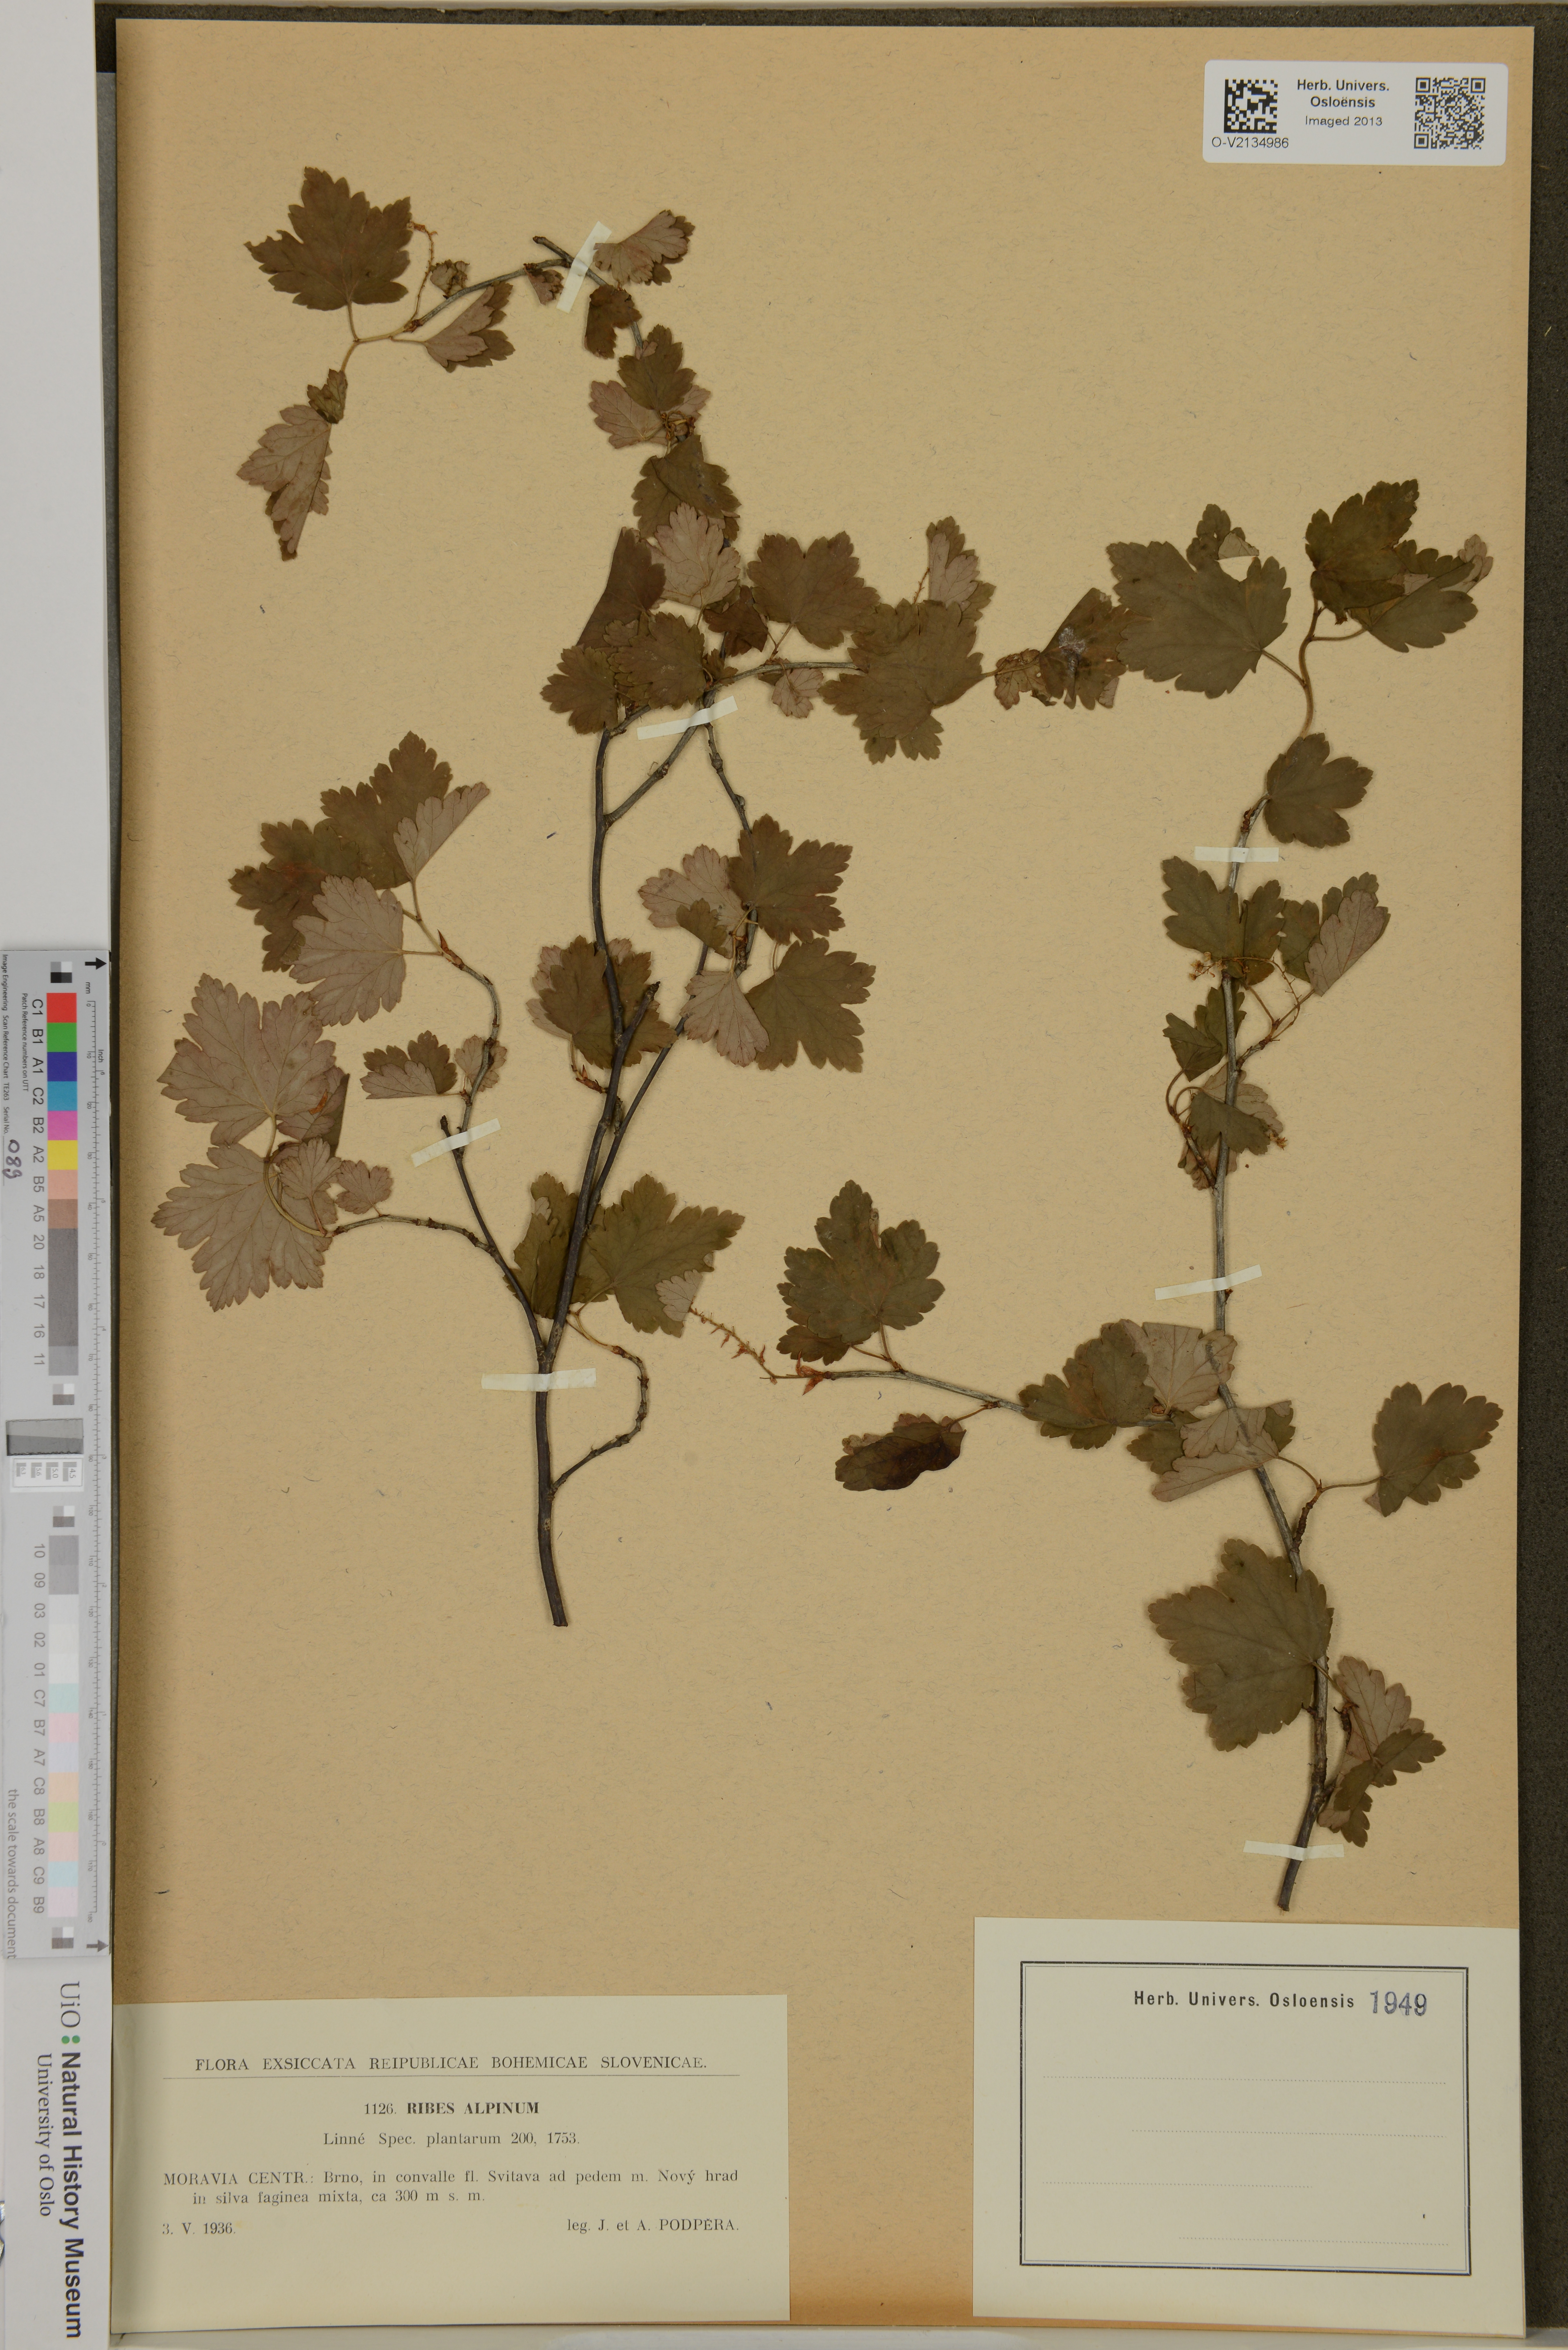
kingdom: Plantae
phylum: Tracheophyta
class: Magnoliopsida
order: Saxifragales
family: Grossulariaceae
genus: Ribes
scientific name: Ribes alpinum
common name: Alpine currant
